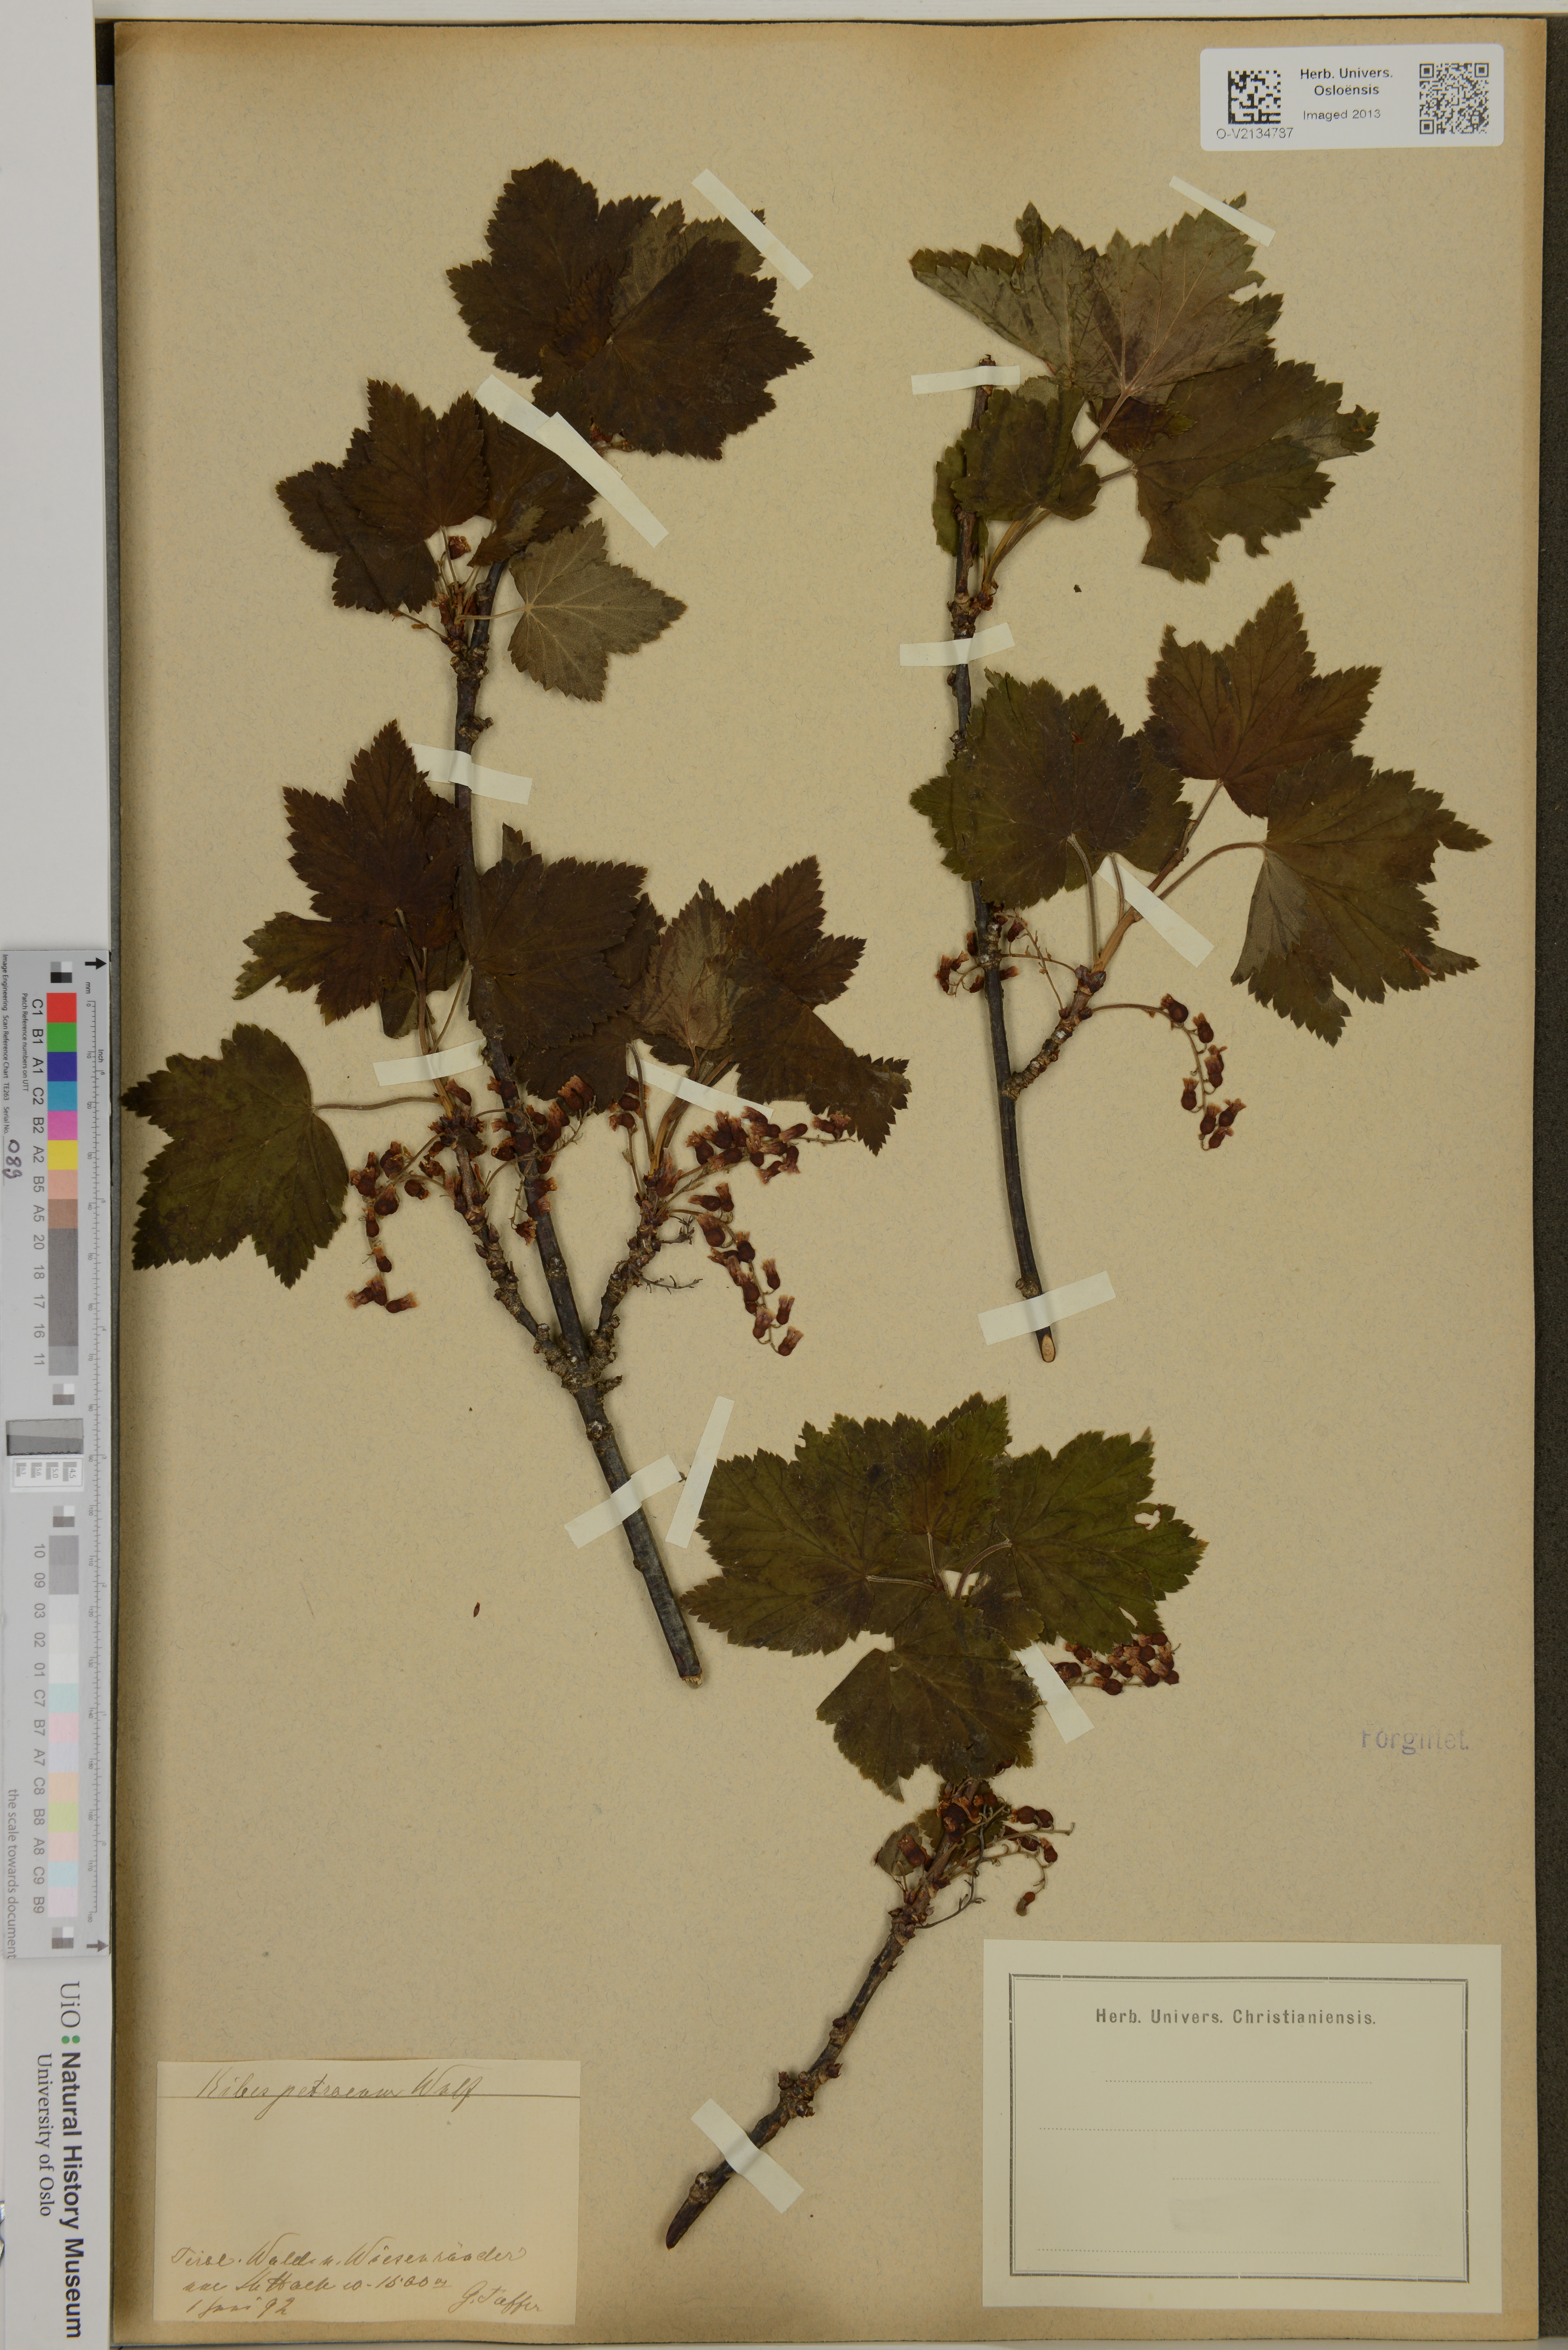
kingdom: Plantae
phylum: Tracheophyta
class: Magnoliopsida
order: Saxifragales
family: Grossulariaceae
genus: Ribes
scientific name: Ribes petraeum
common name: Rock currant
